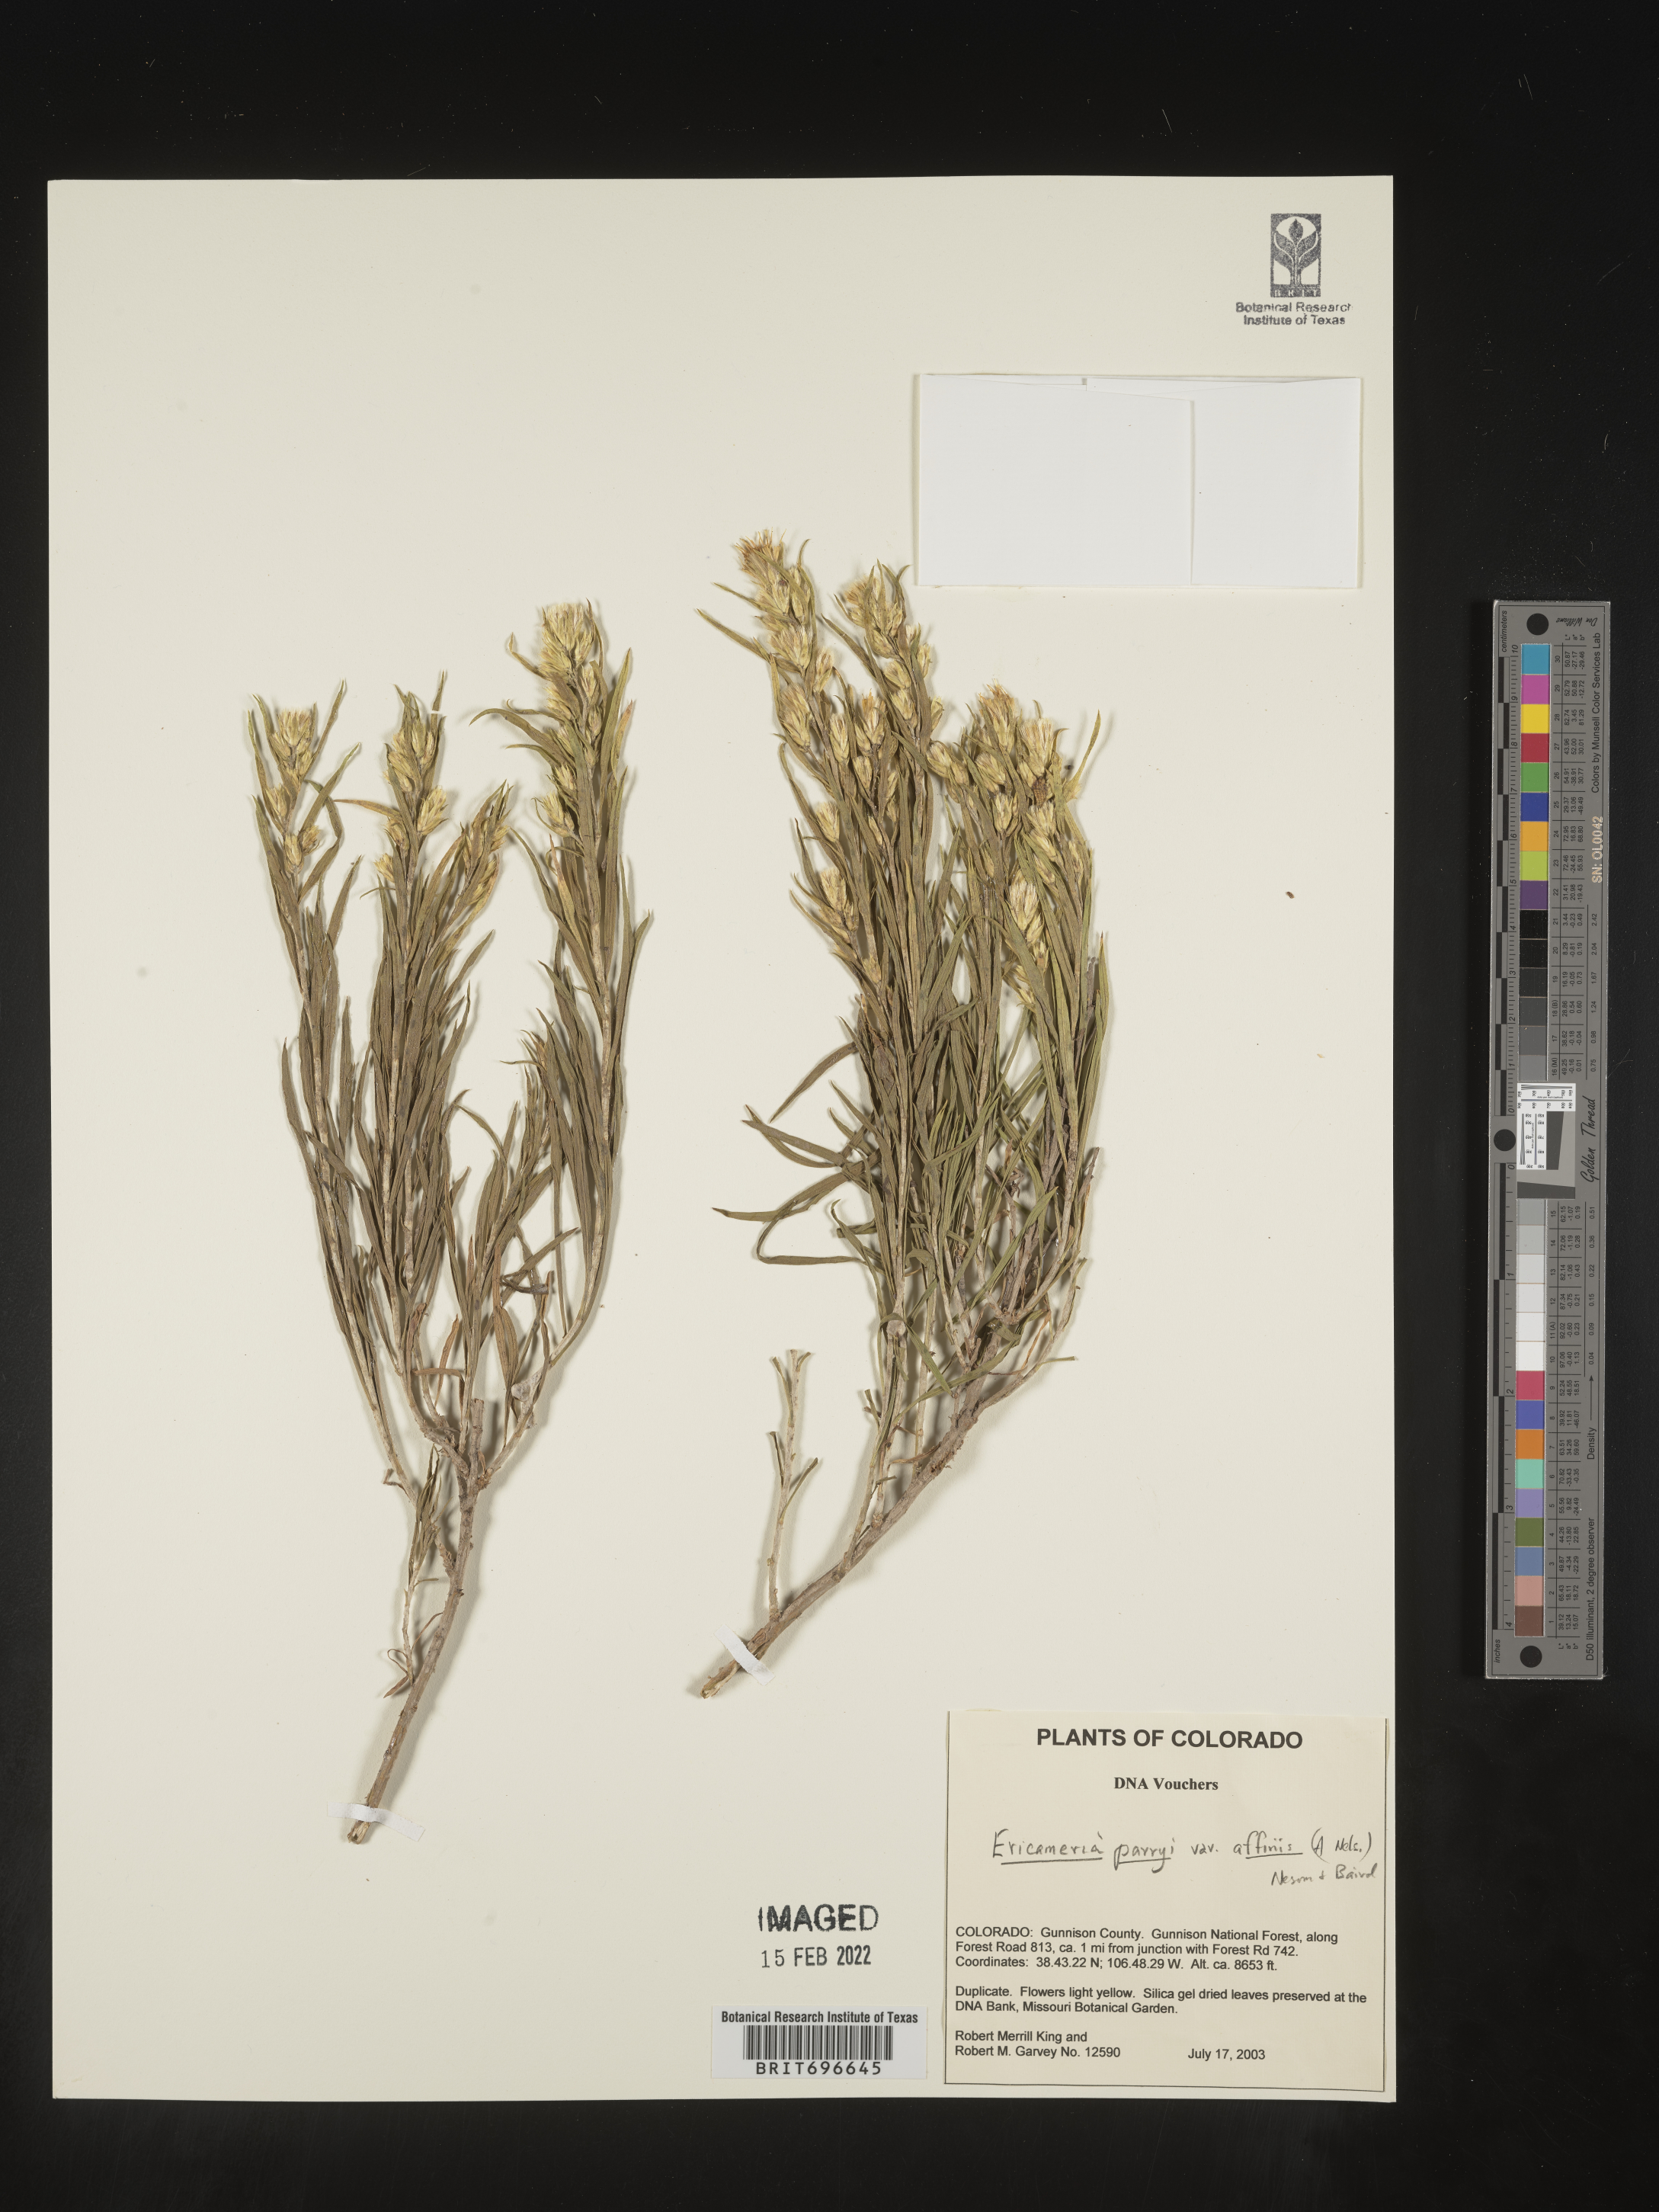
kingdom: Plantae
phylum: Tracheophyta
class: Magnoliopsida
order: Asterales
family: Asteraceae
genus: Ericameria
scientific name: Ericameria parryi
